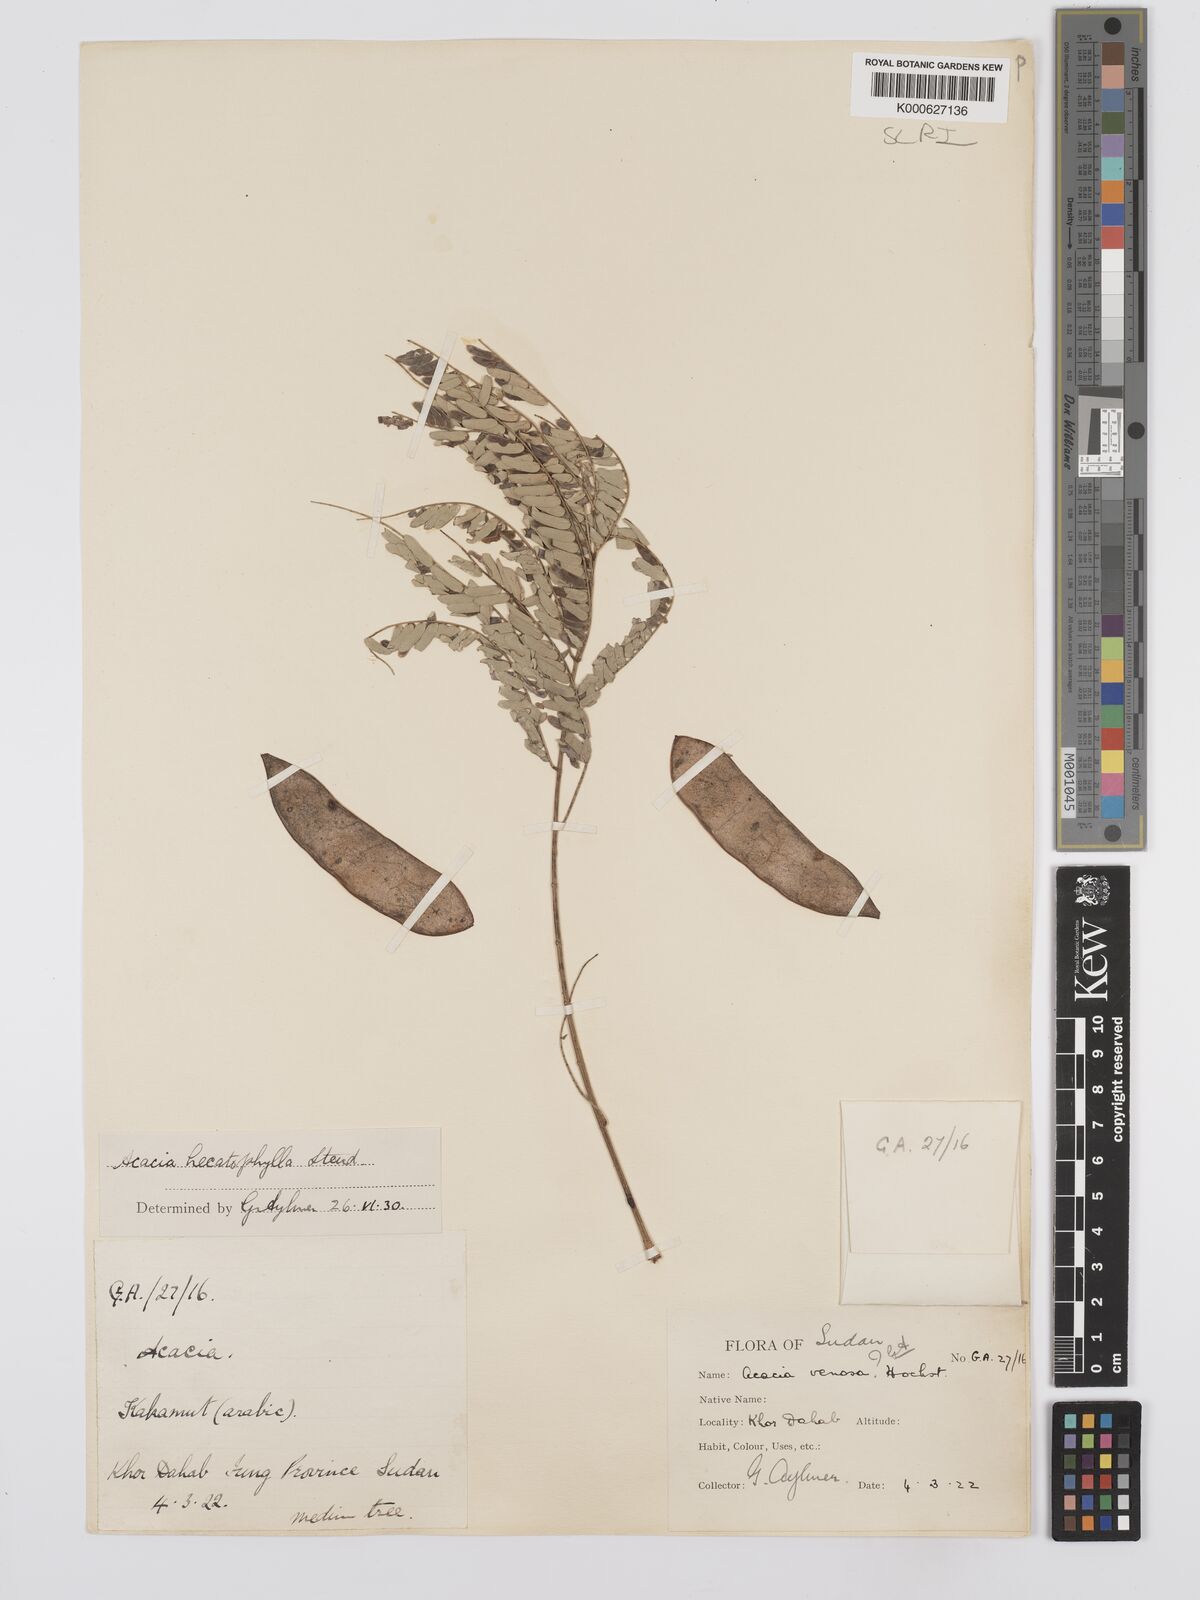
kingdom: Plantae
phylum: Tracheophyta
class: Magnoliopsida
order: Fabales
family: Fabaceae
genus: Senegalia
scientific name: Senegalia hecatophylla
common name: Long pod
